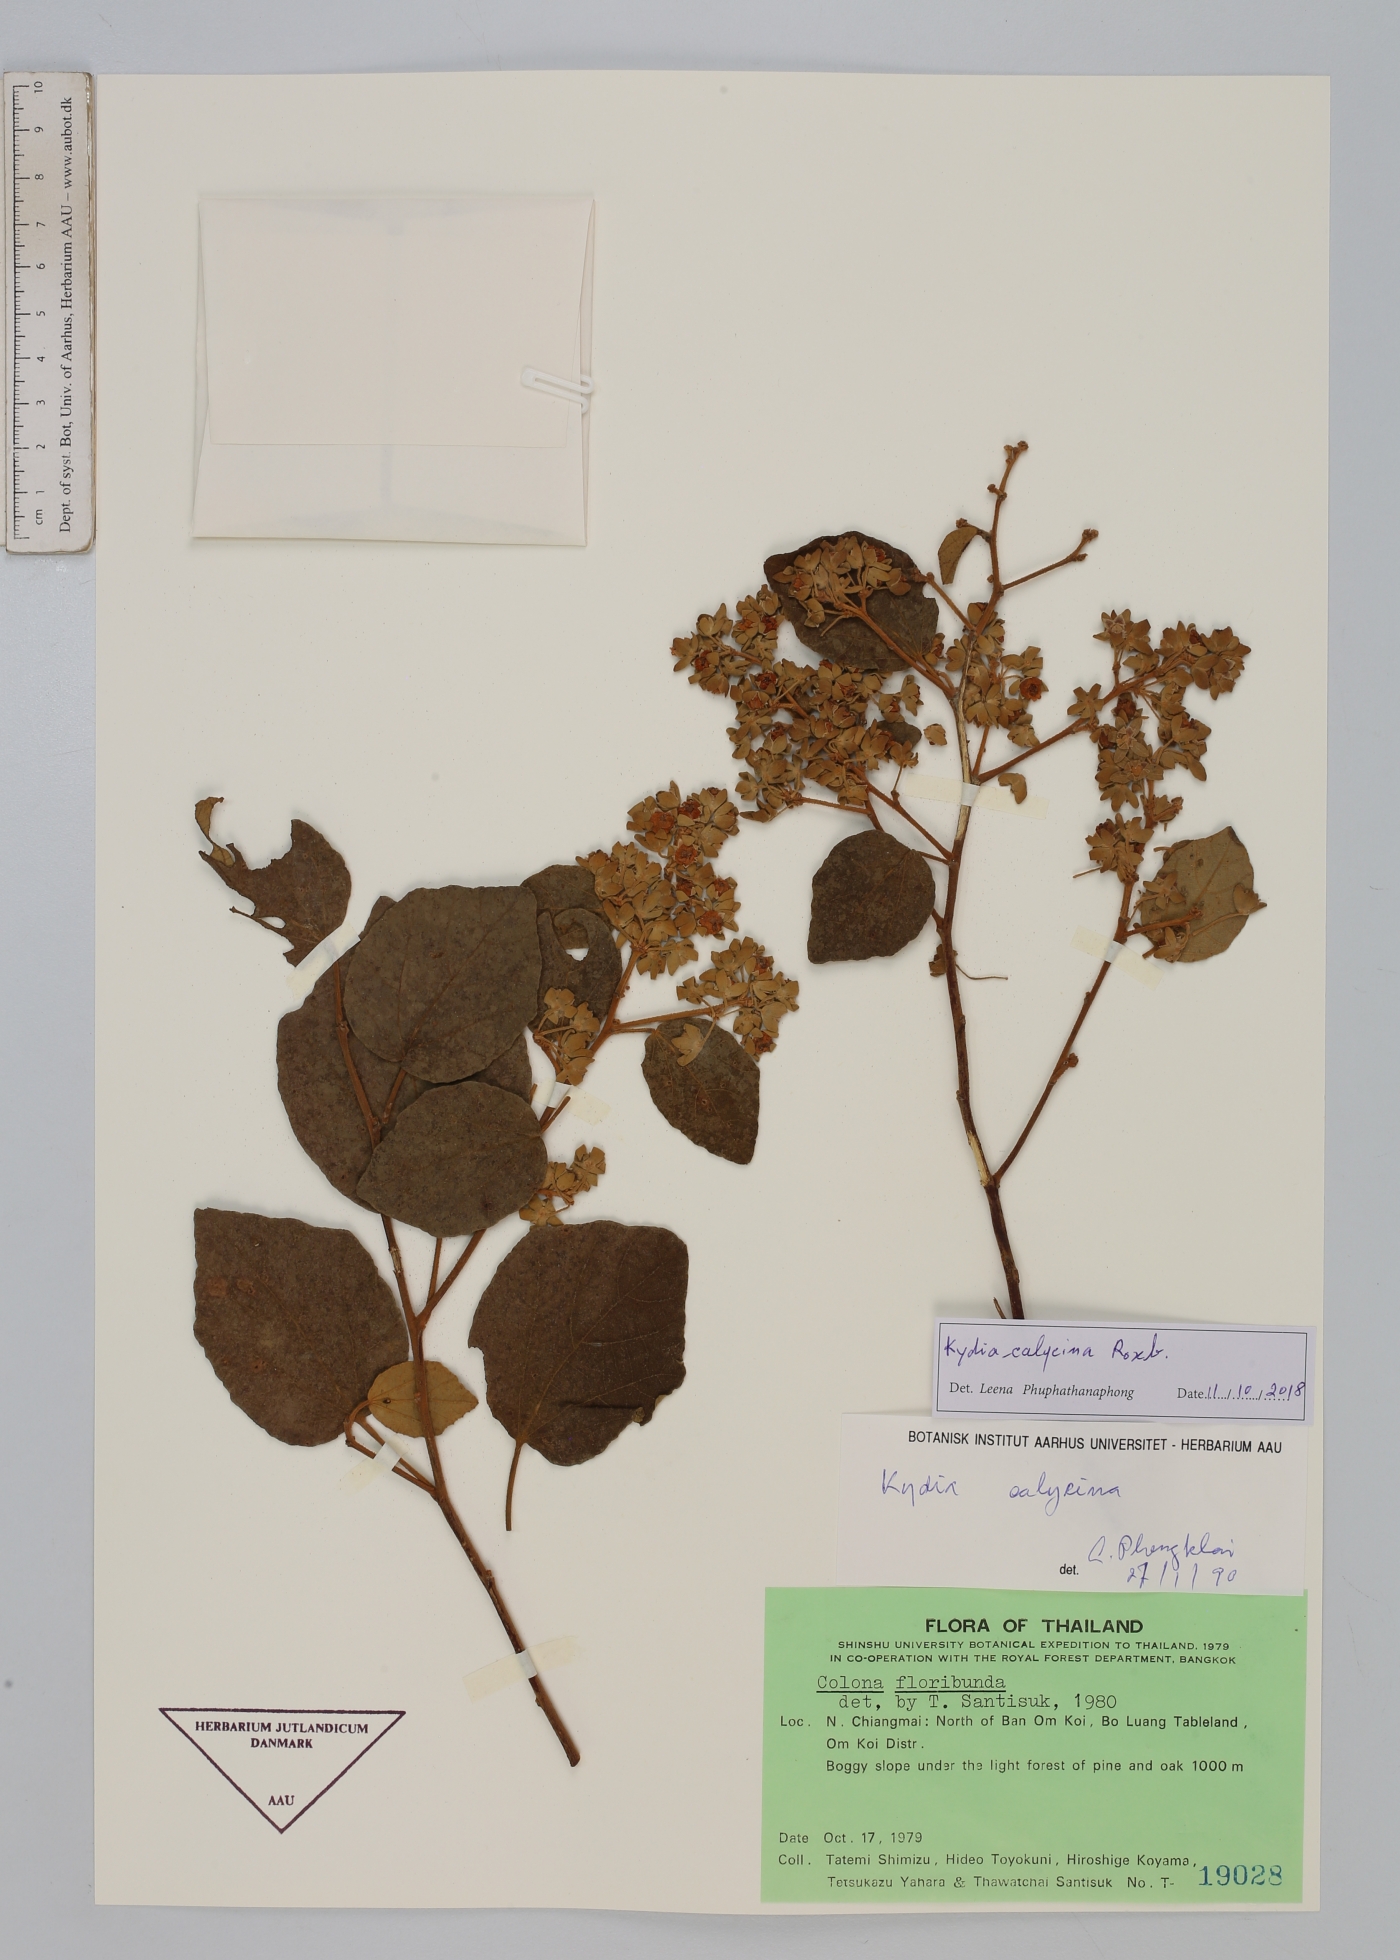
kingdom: Plantae
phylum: Tracheophyta
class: Magnoliopsida
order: Malvales
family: Malvaceae
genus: Kydia
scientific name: Kydia calycina
